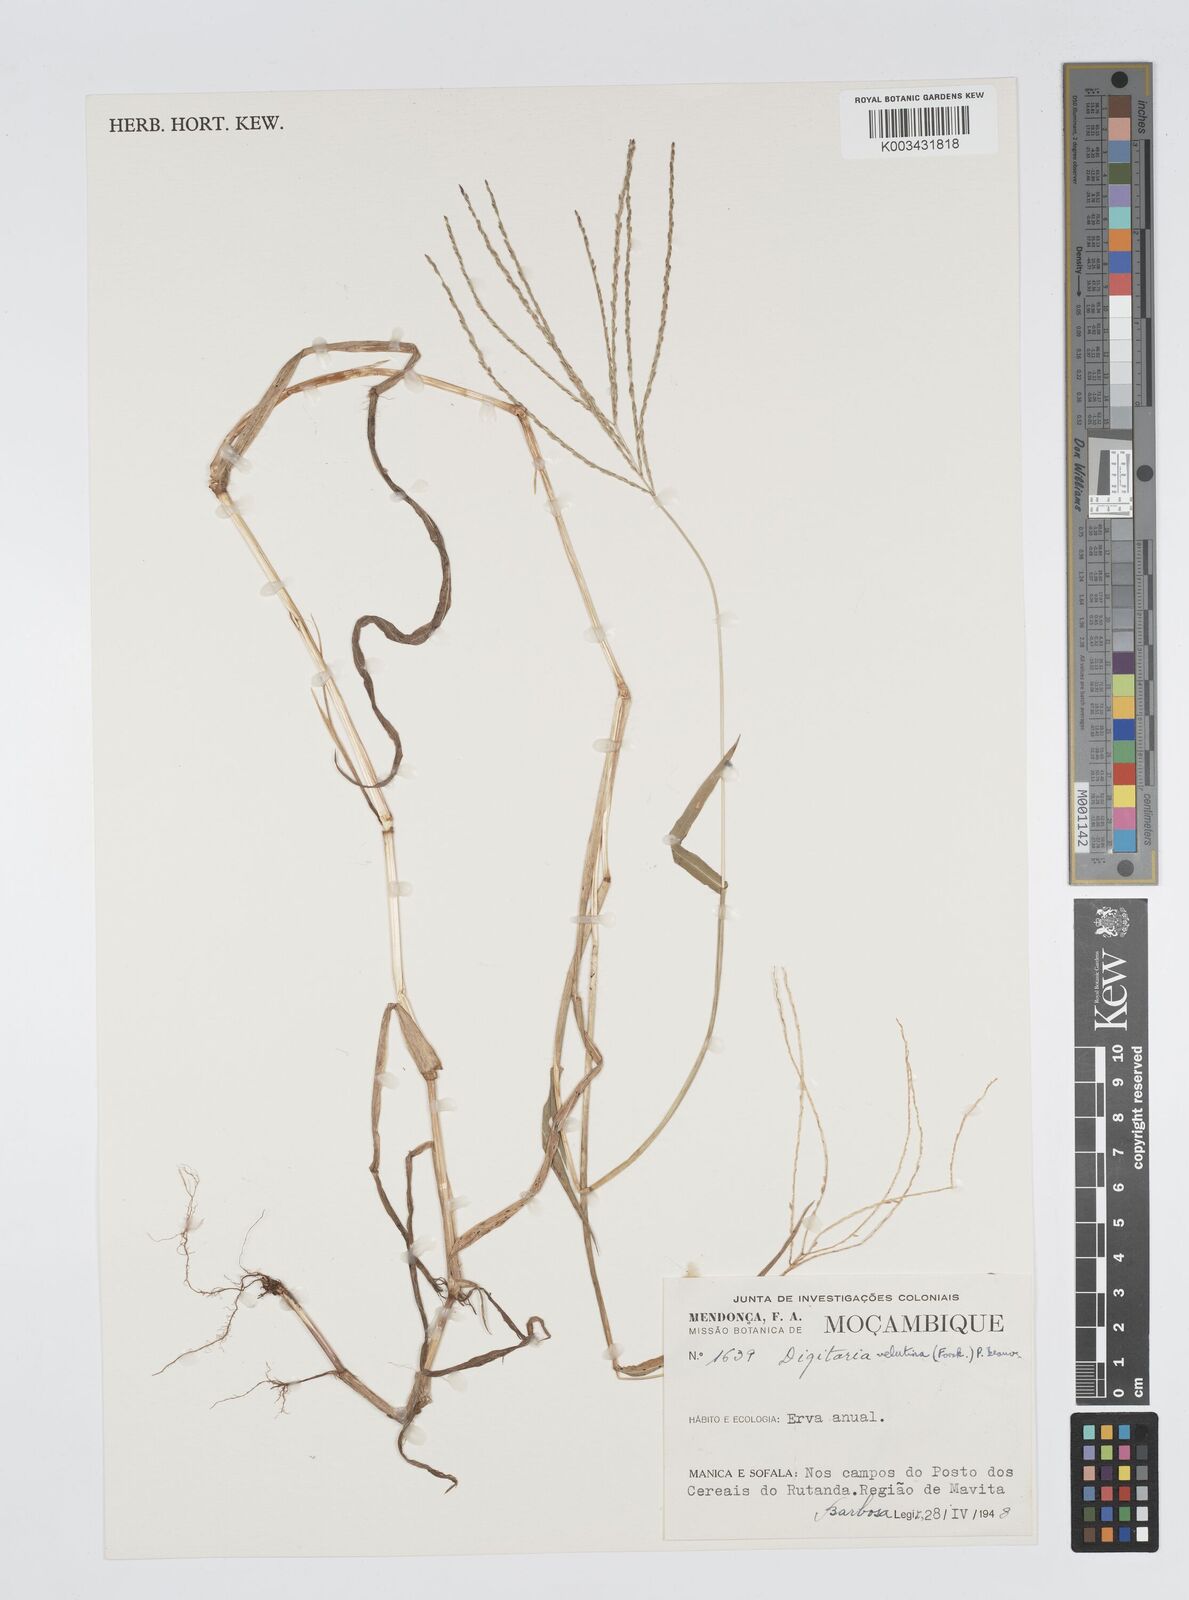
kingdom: Plantae
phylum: Tracheophyta
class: Liliopsida
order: Poales
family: Poaceae
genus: Digitaria
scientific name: Digitaria velutina
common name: Long-plume finger grass
